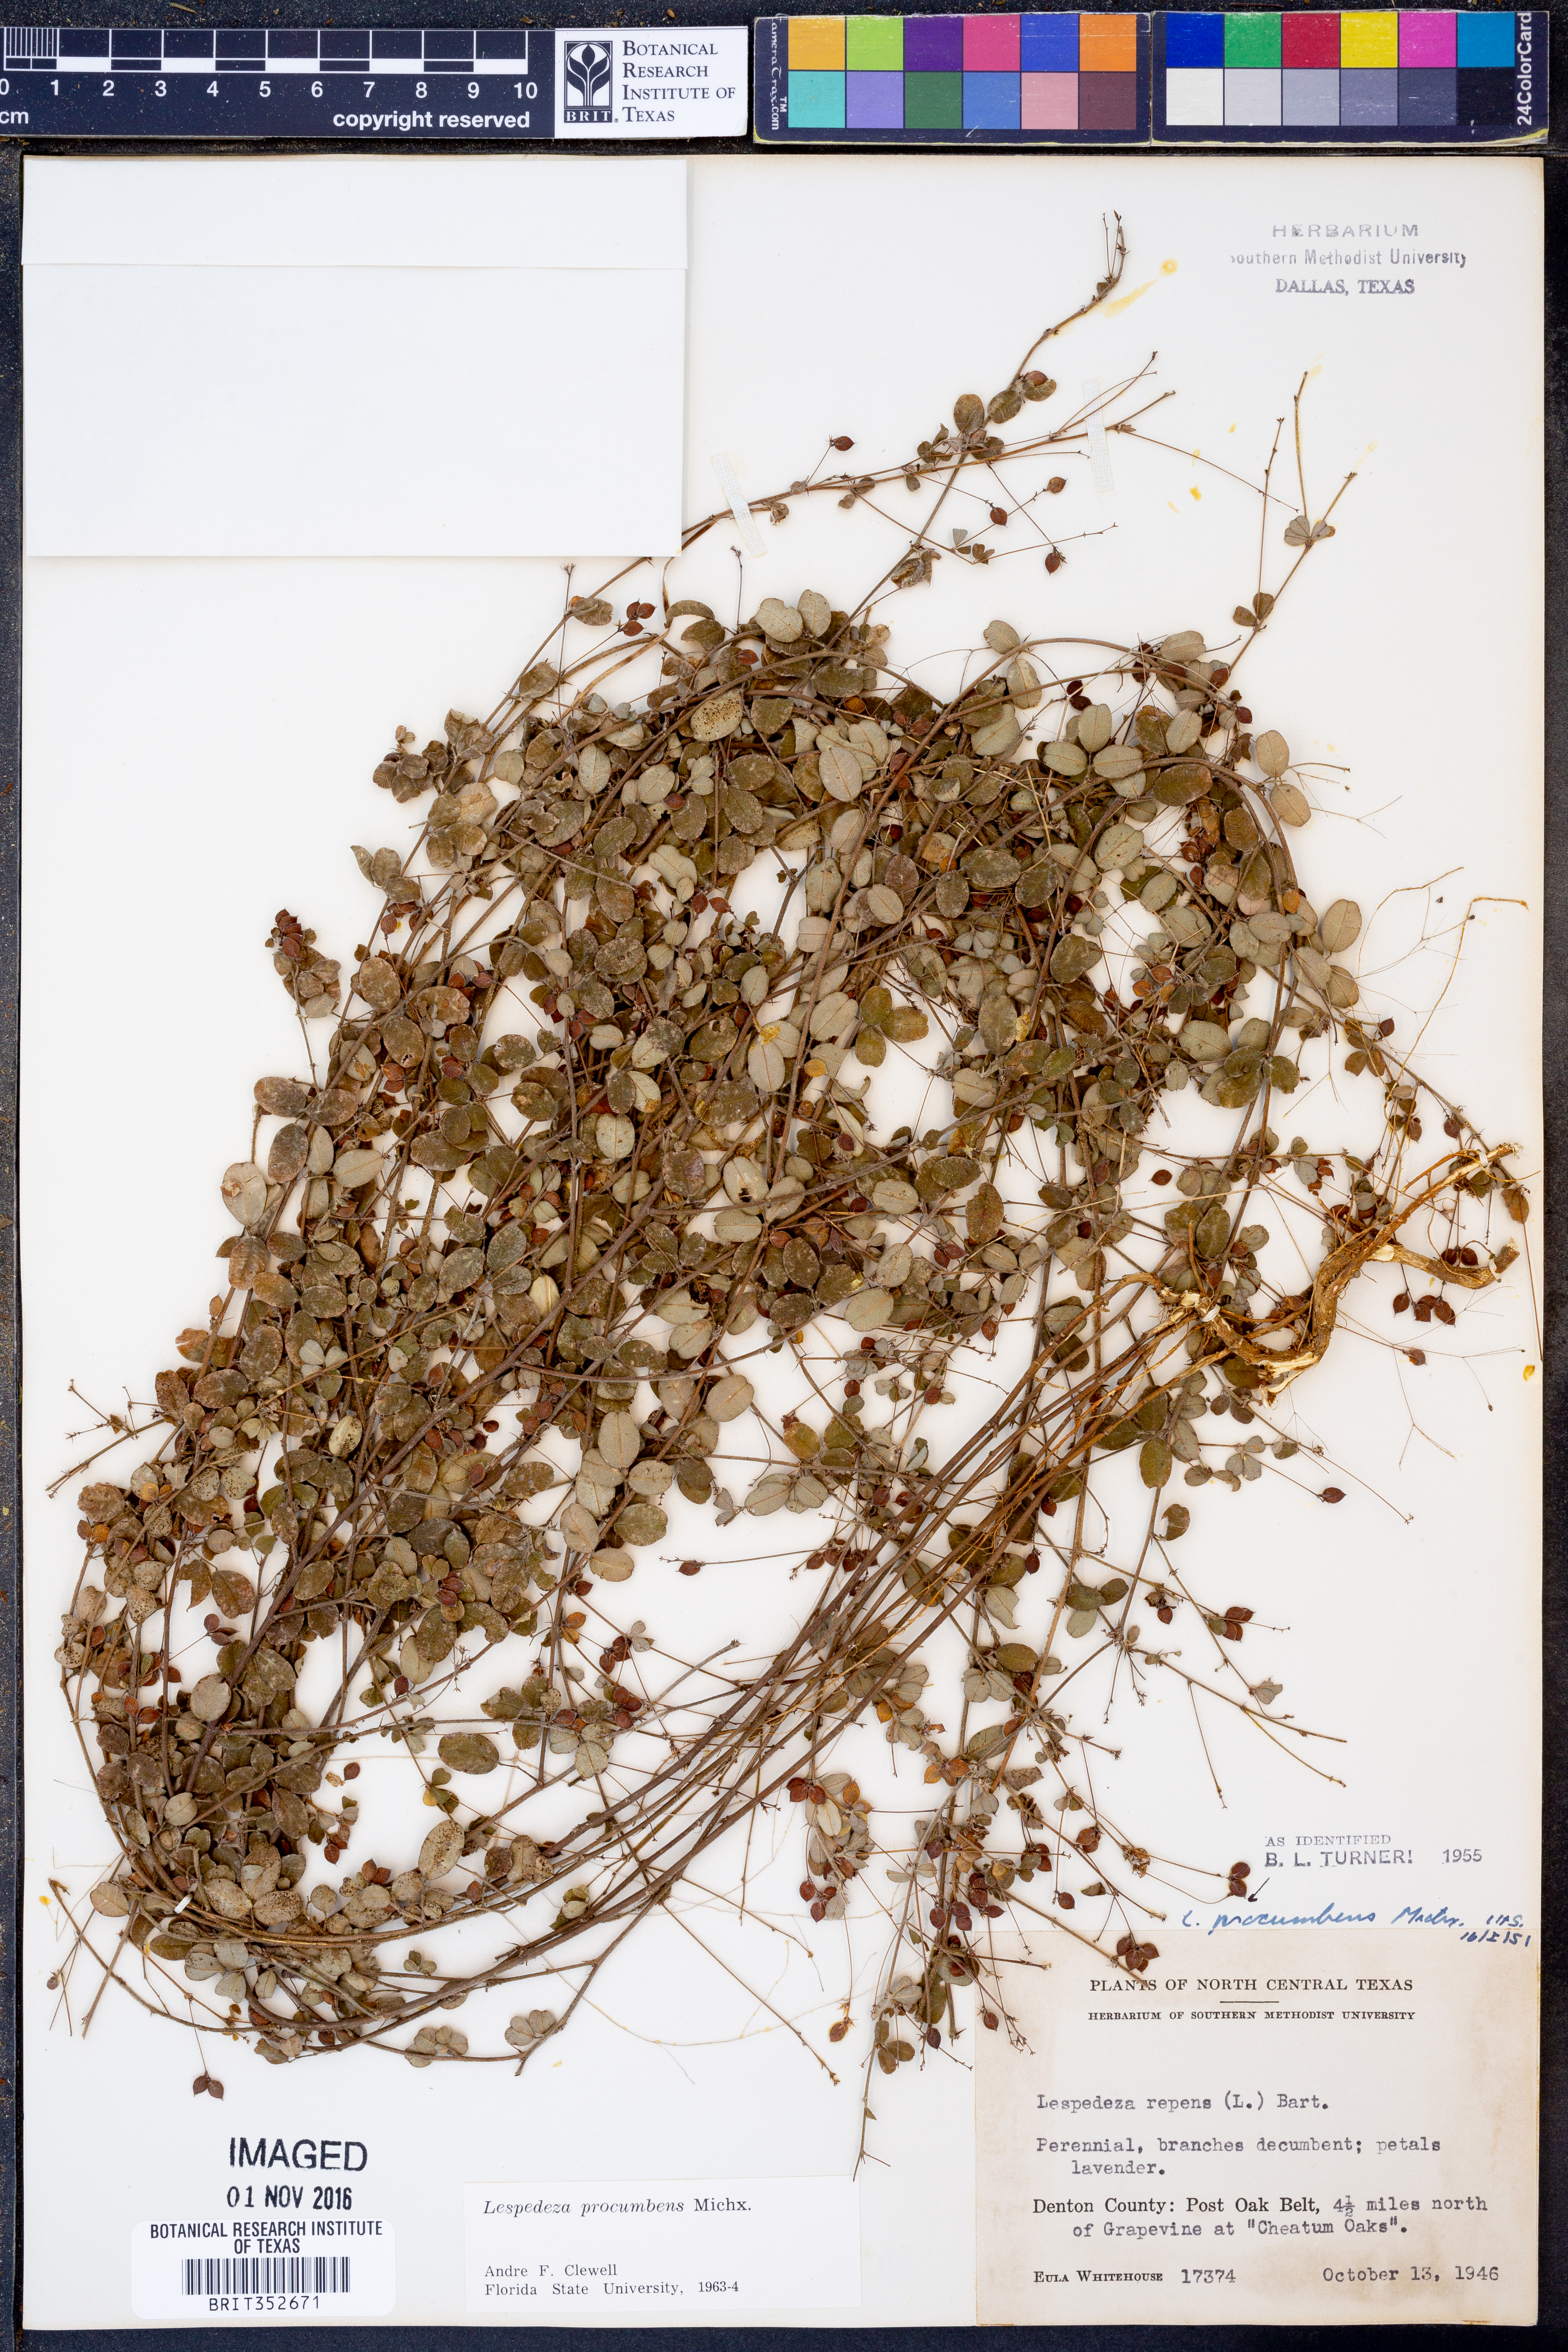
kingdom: Plantae
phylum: Tracheophyta
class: Magnoliopsida
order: Fabales
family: Fabaceae
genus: Lespedeza
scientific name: Lespedeza procumbens
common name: Downy trailing bush-clover
